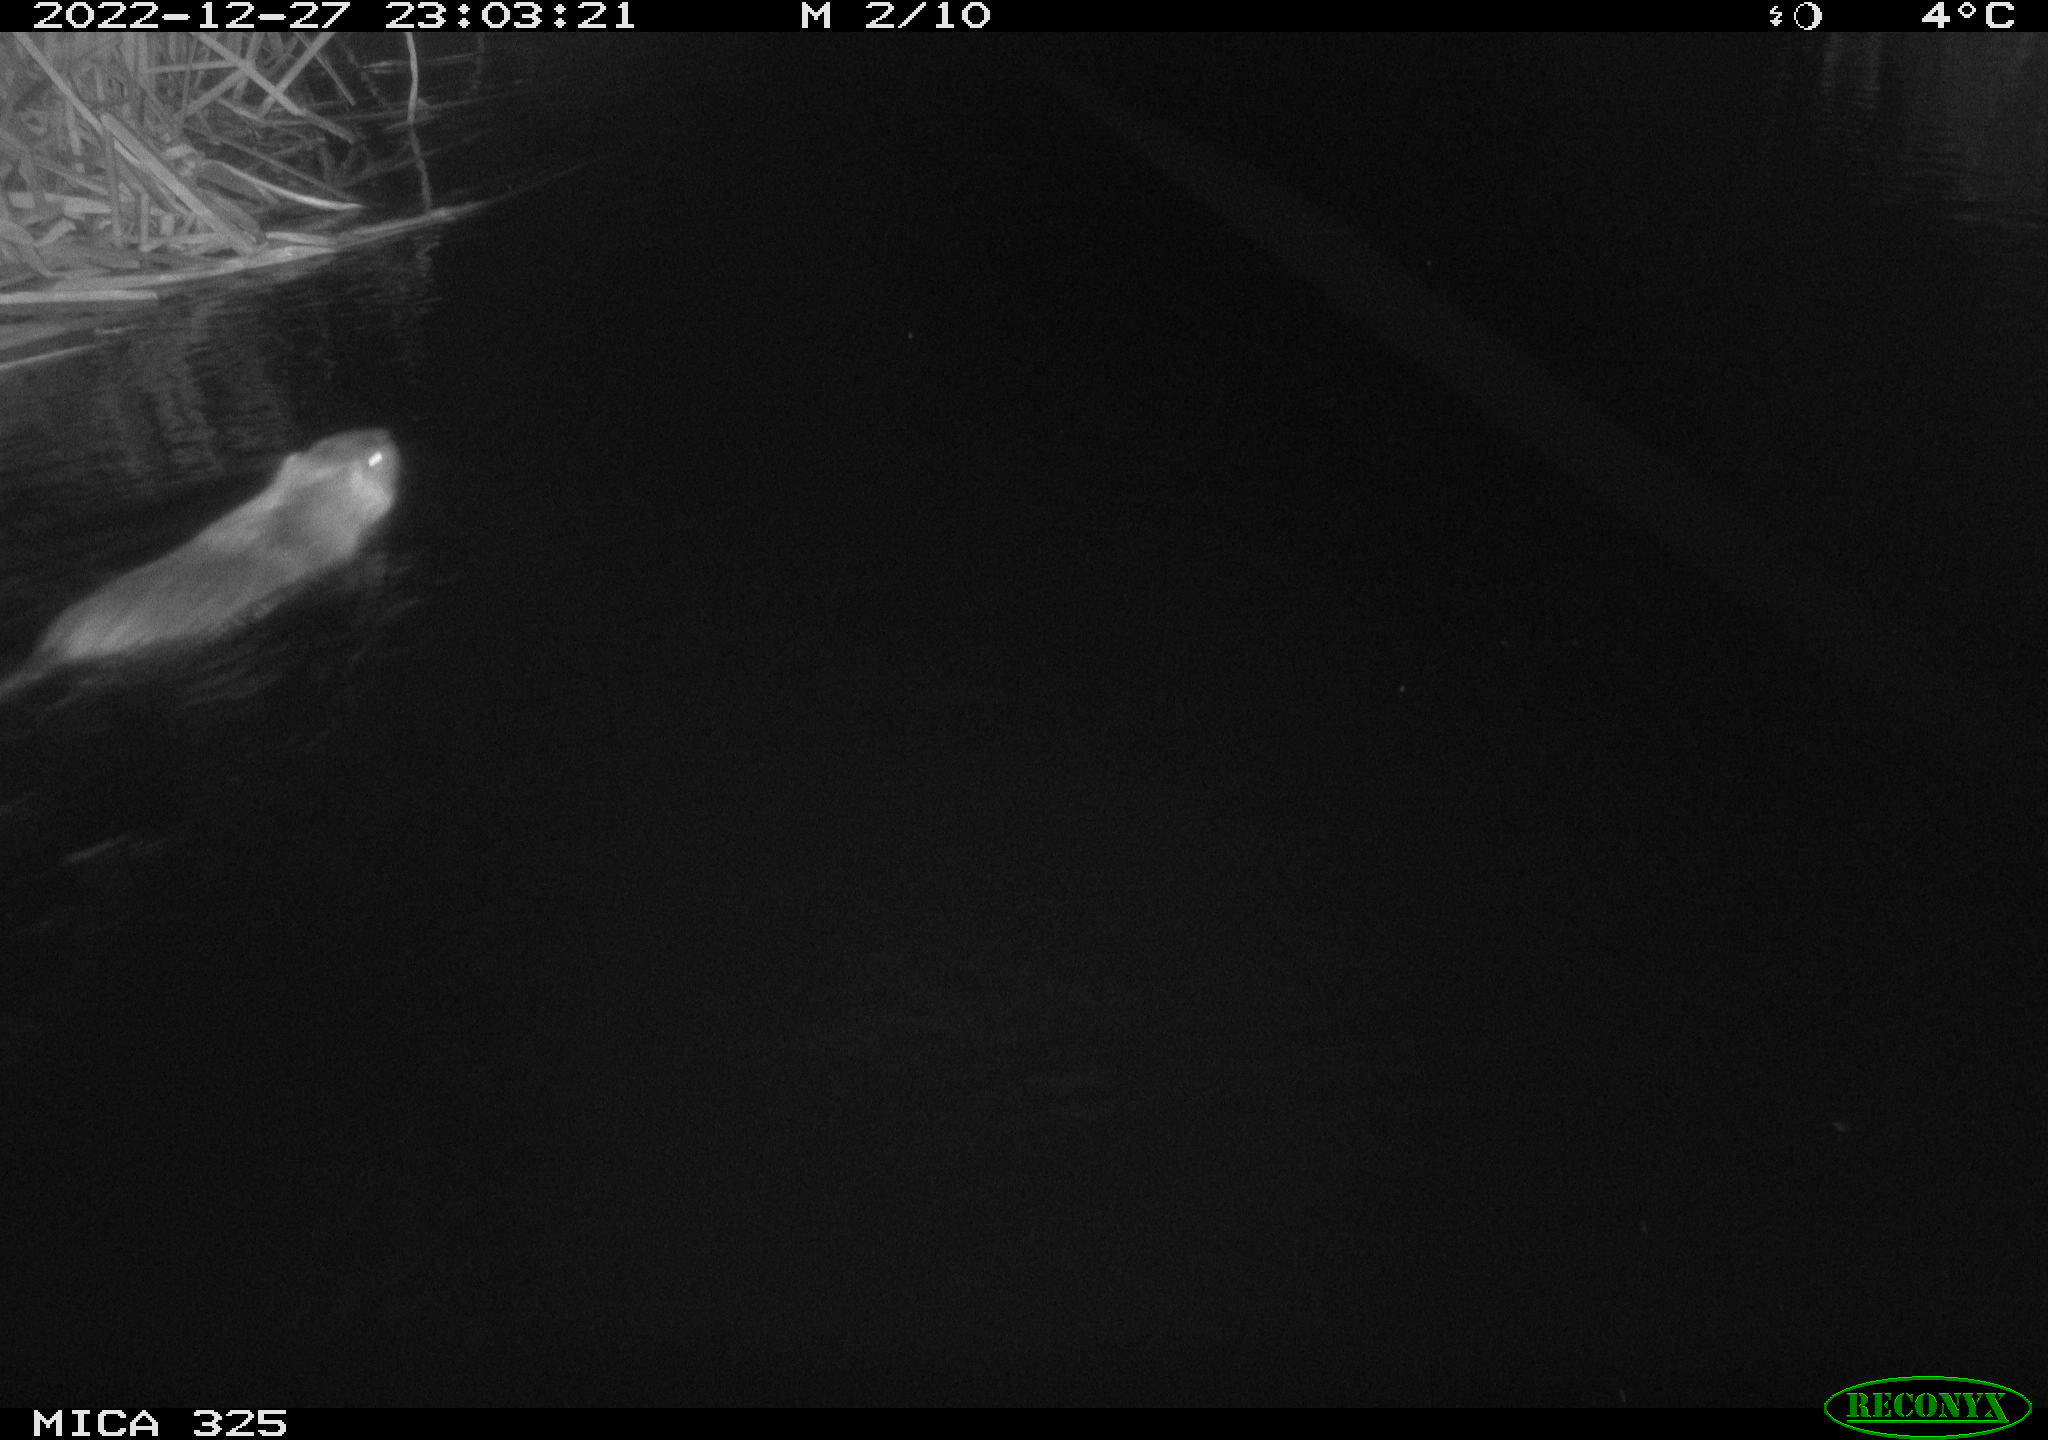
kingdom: Animalia
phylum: Chordata
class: Mammalia
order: Rodentia
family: Myocastoridae
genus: Myocastor
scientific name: Myocastor coypus
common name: Coypu
